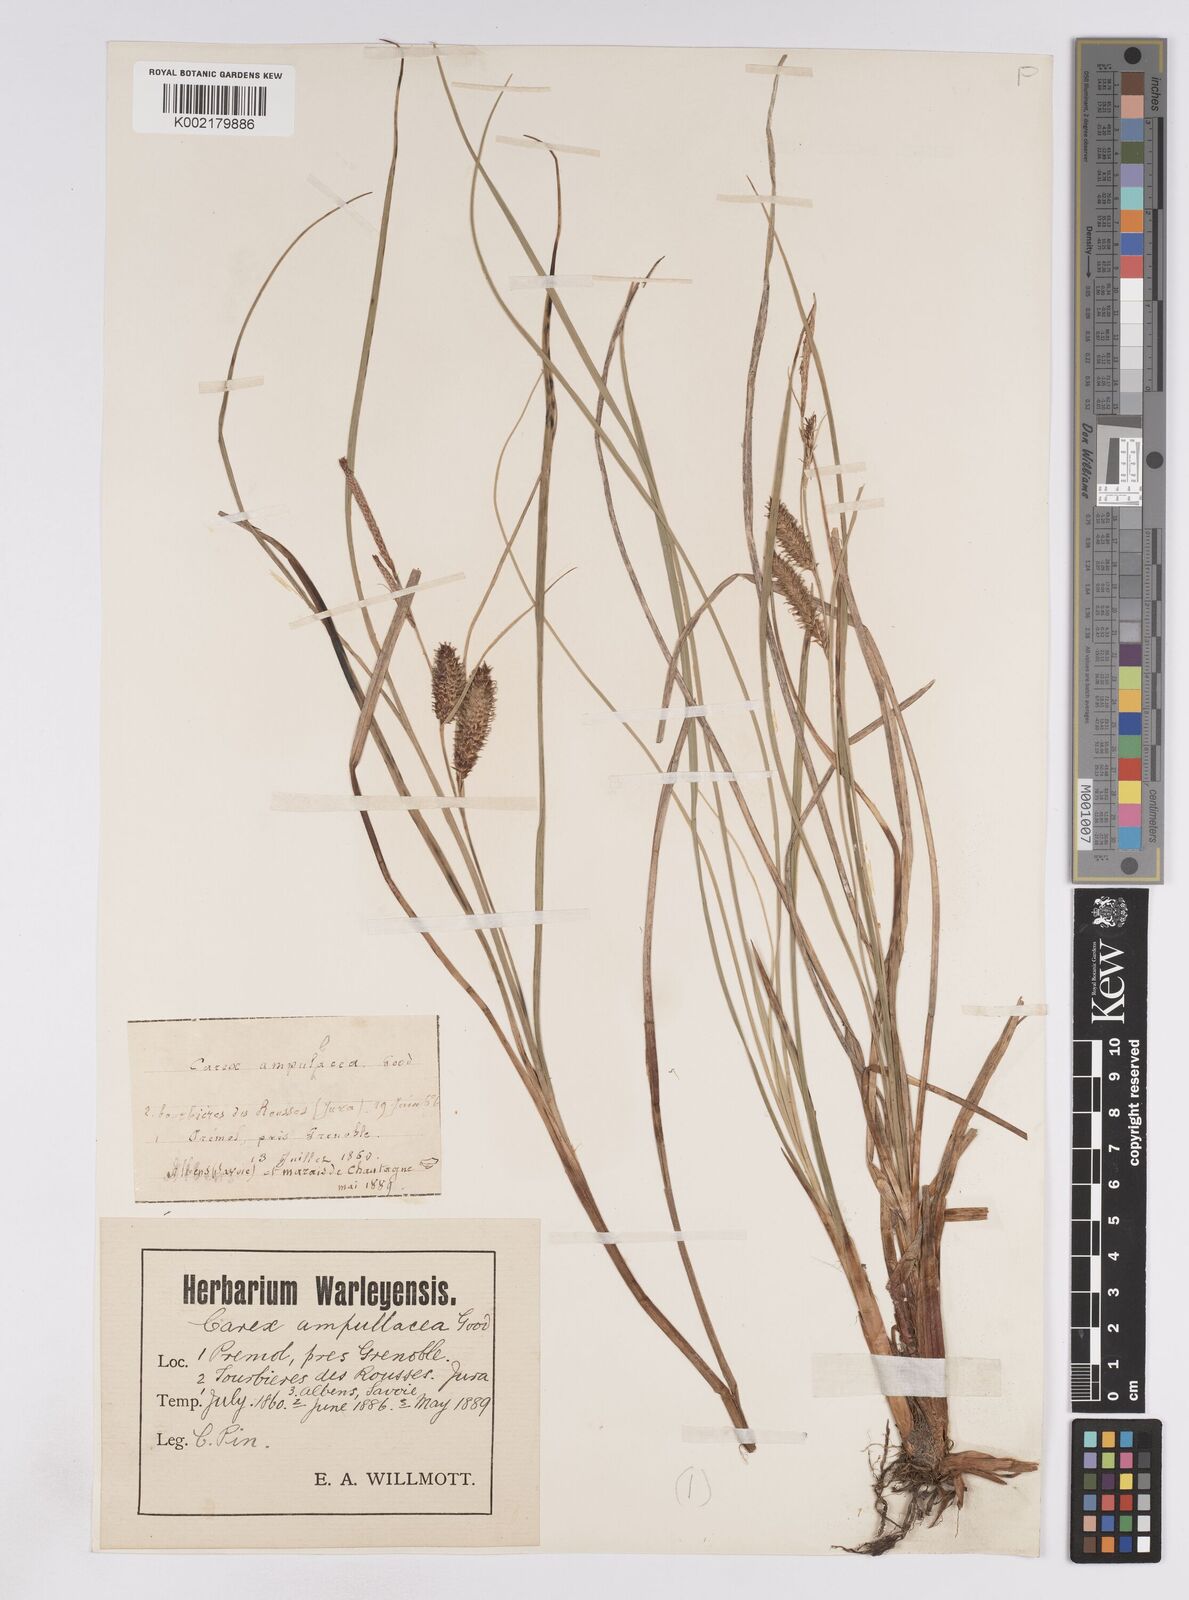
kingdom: Plantae
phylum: Tracheophyta
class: Liliopsida
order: Poales
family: Cyperaceae
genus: Carex
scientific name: Carex rostrata
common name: Bottle sedge
